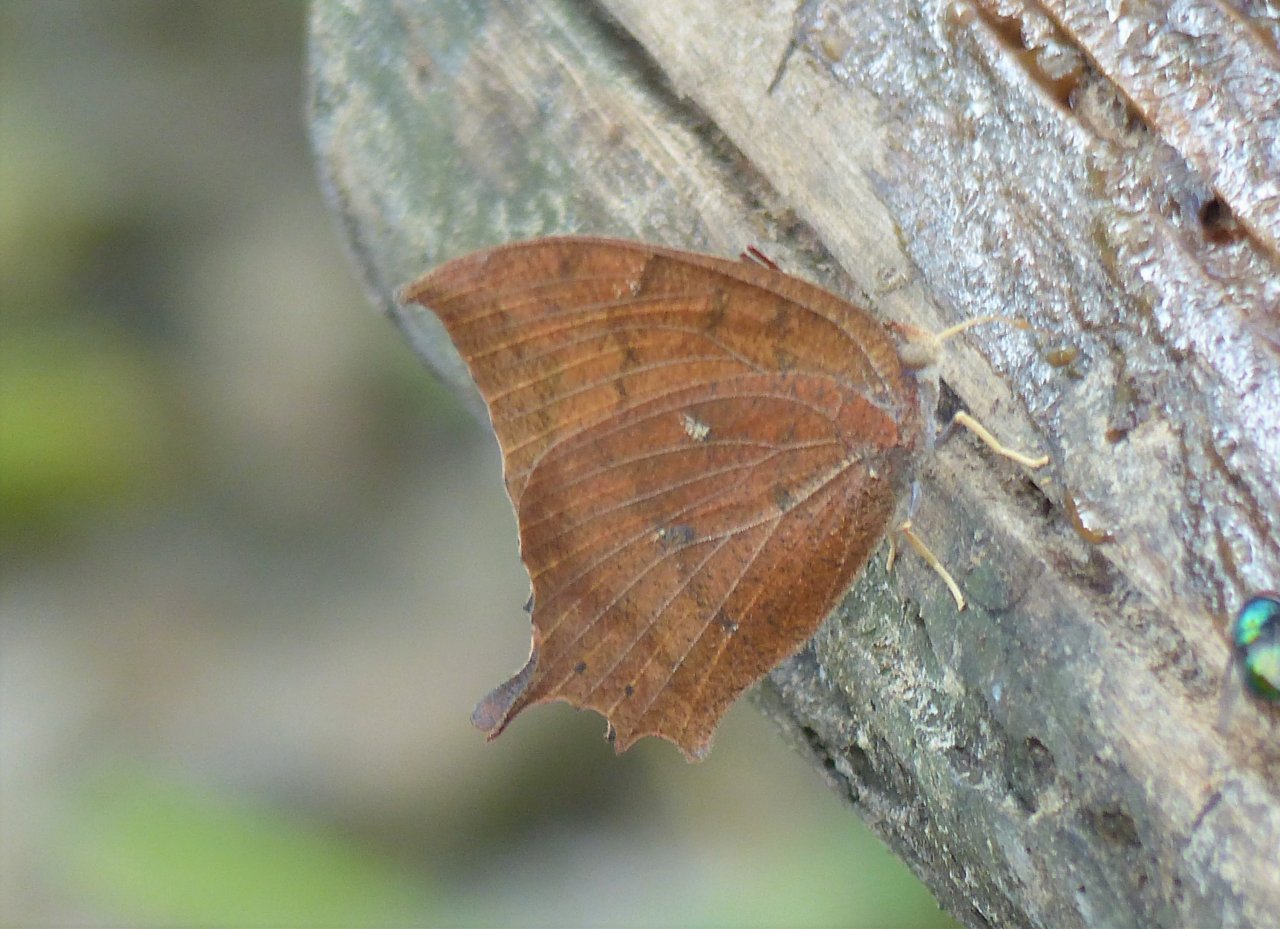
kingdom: Animalia
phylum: Arthropoda
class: Insecta
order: Lepidoptera
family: Nymphalidae
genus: Anaea
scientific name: Anaea aidea
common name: Tropical Leafwing
